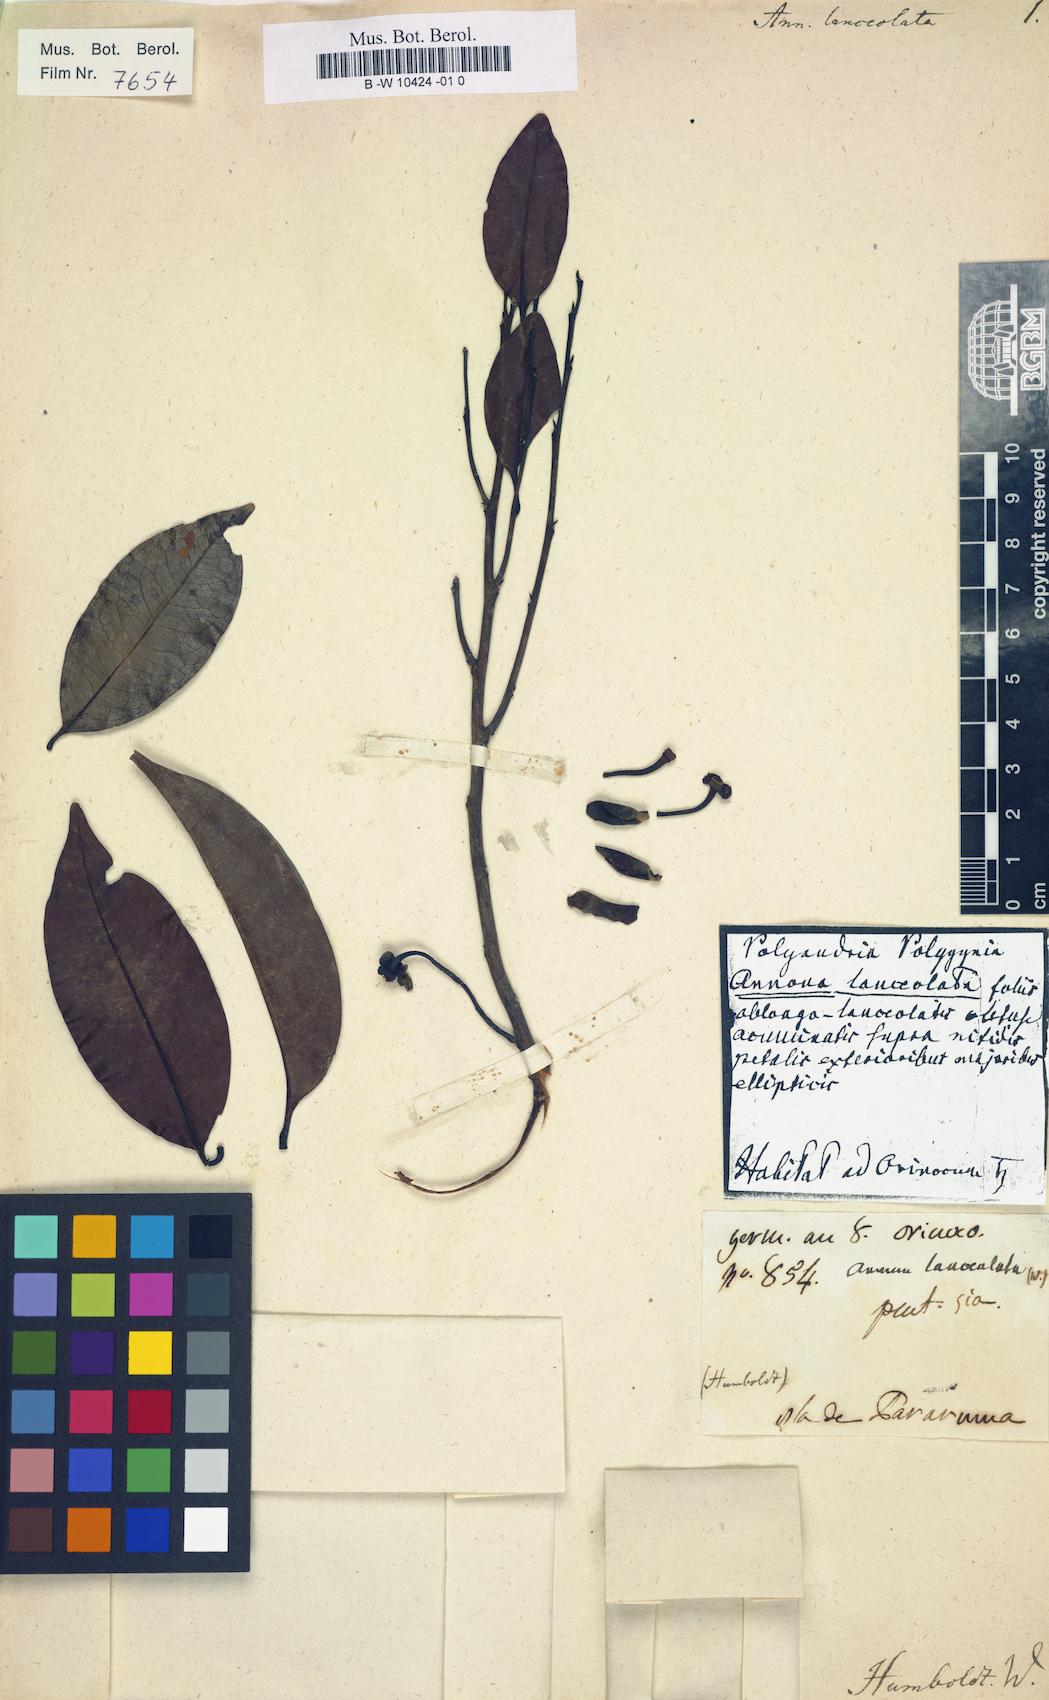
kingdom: Plantae
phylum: Tracheophyta
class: Magnoliopsida
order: Magnoliales
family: Annonaceae
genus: Guatteria
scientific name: Guatteria maypurensis
